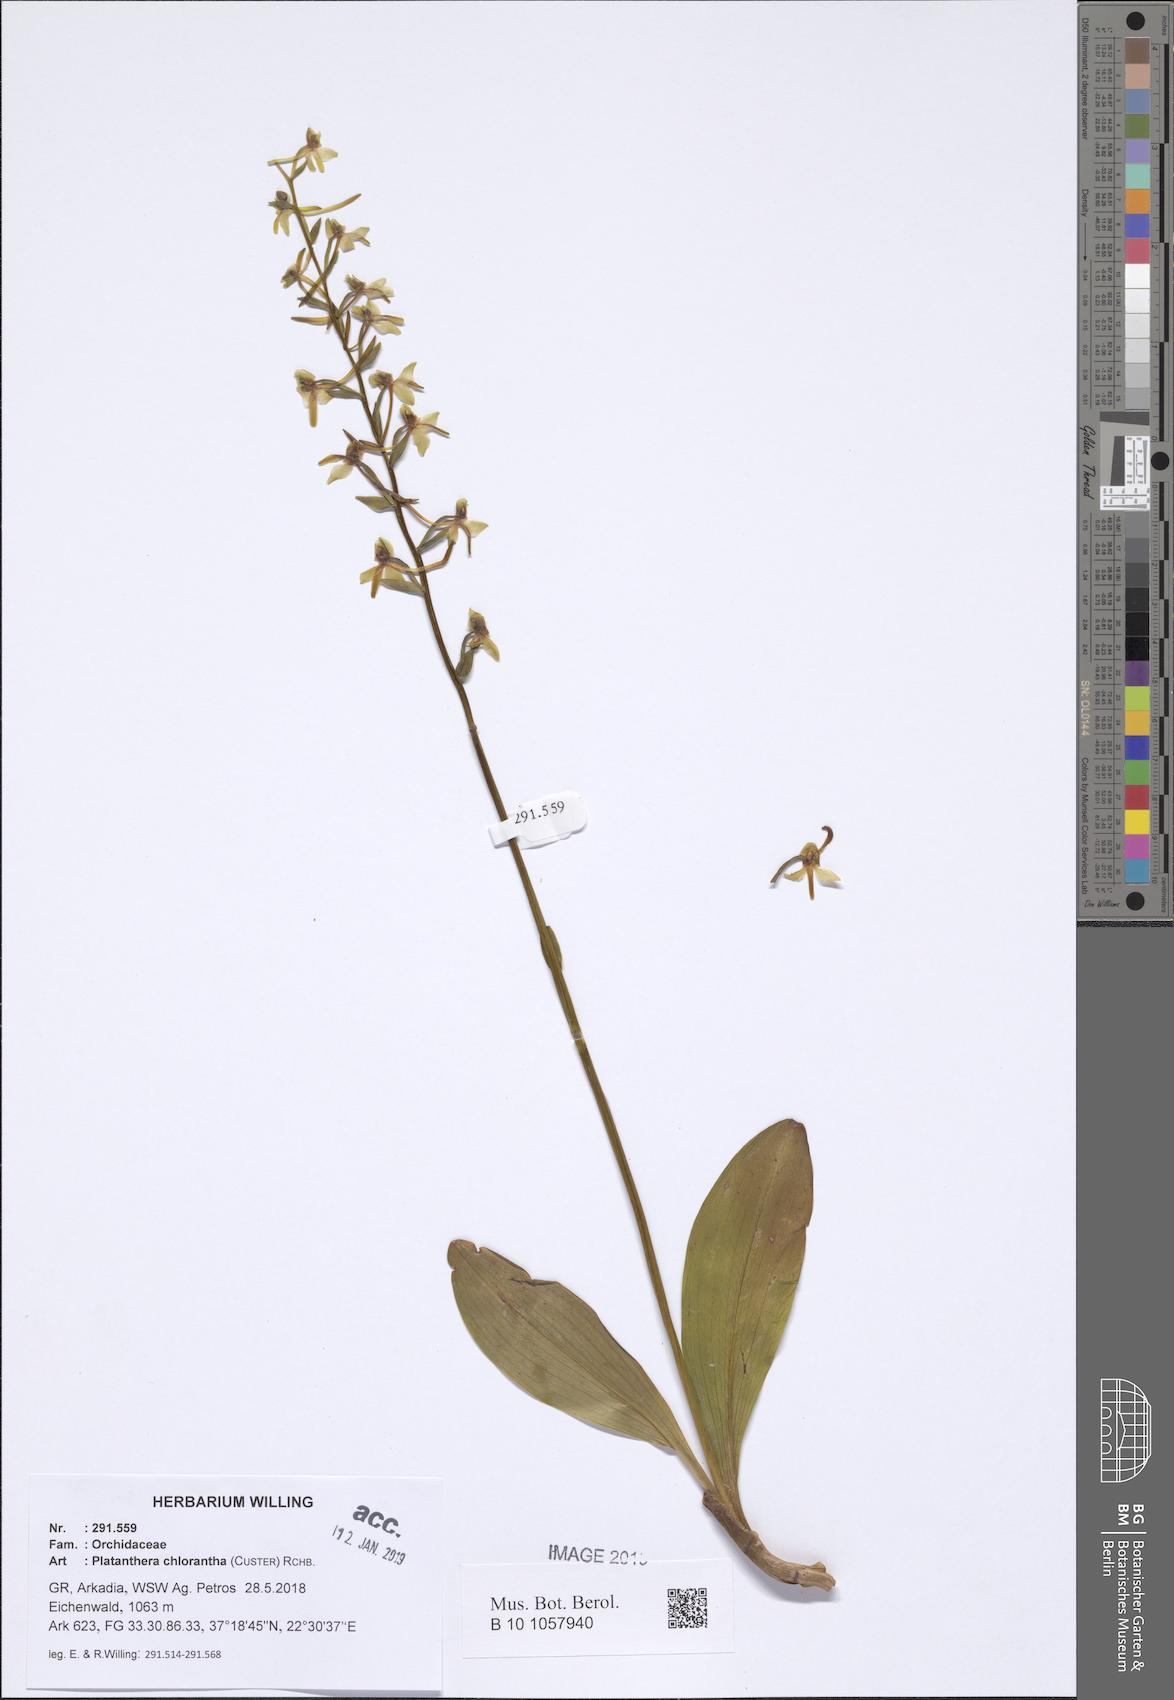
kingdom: Plantae
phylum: Tracheophyta
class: Liliopsida
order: Asparagales
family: Orchidaceae
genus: Platanthera
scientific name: Platanthera chlorantha
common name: Greater butterfly-orchid
